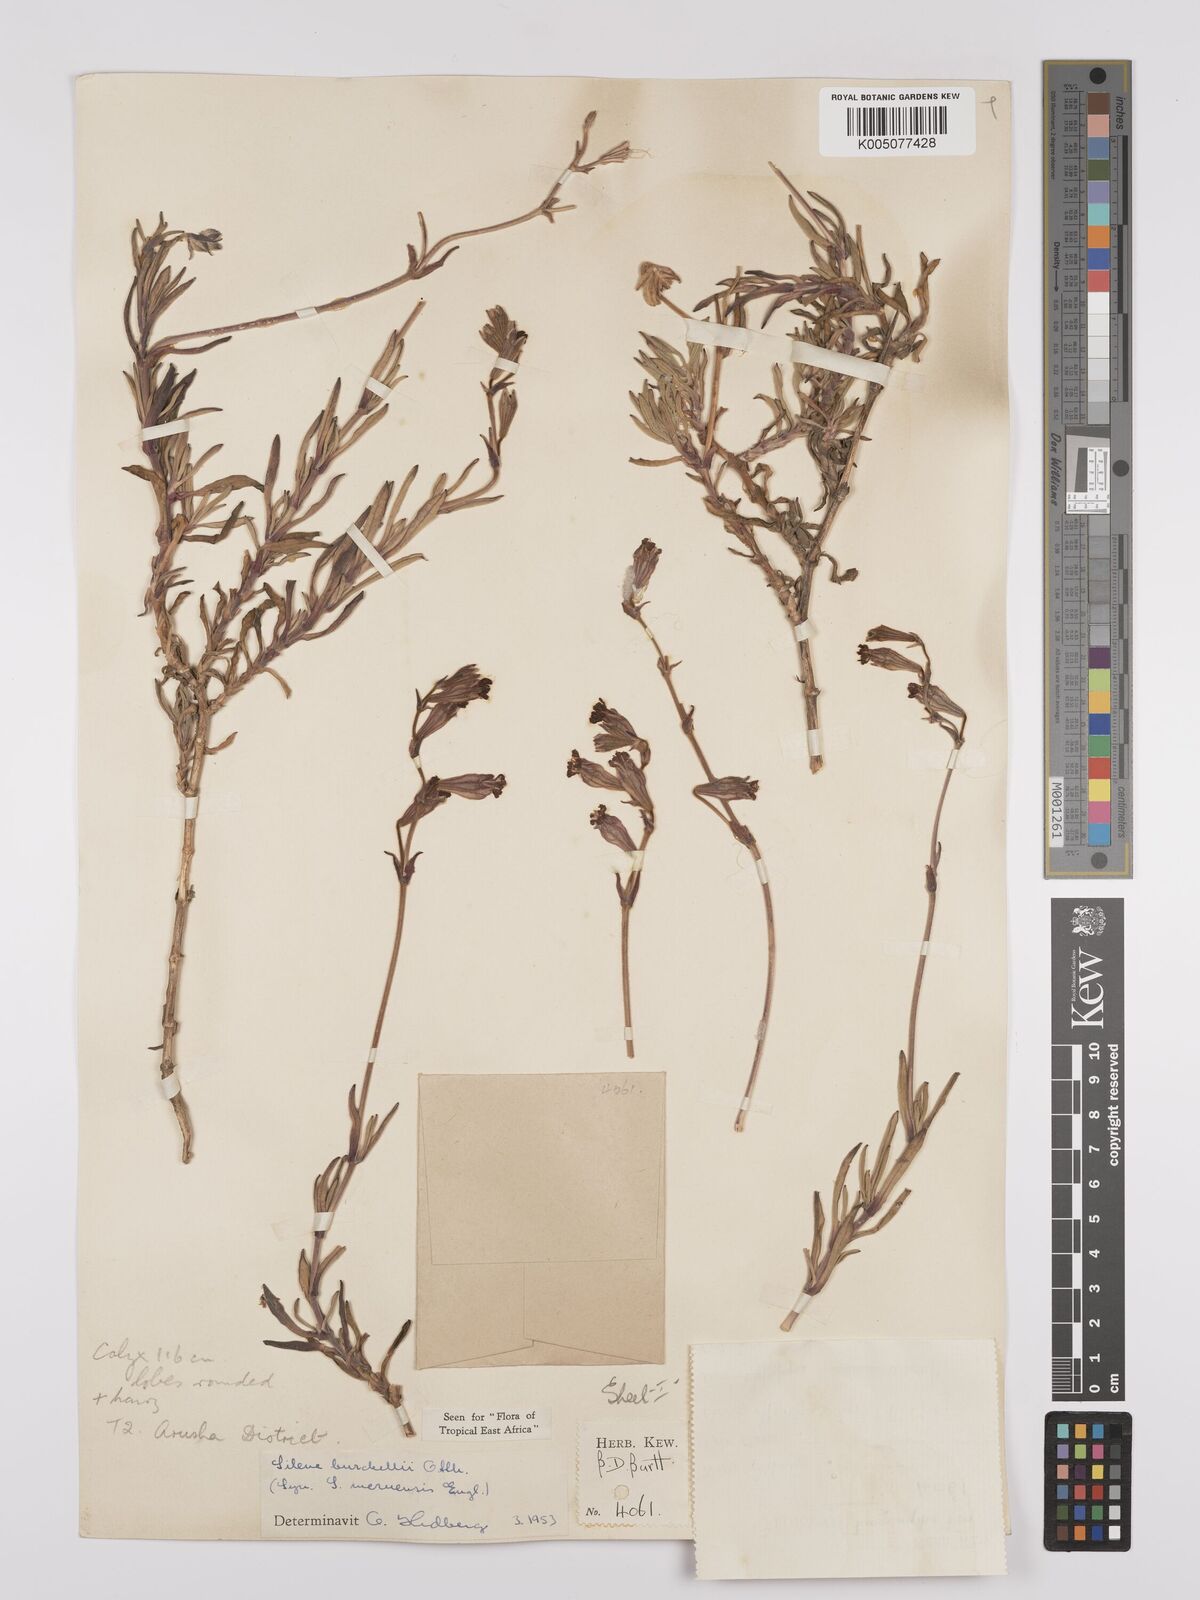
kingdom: Plantae
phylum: Tracheophyta
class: Magnoliopsida
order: Caryophyllales
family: Caryophyllaceae
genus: Silene
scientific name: Silene burchellii
